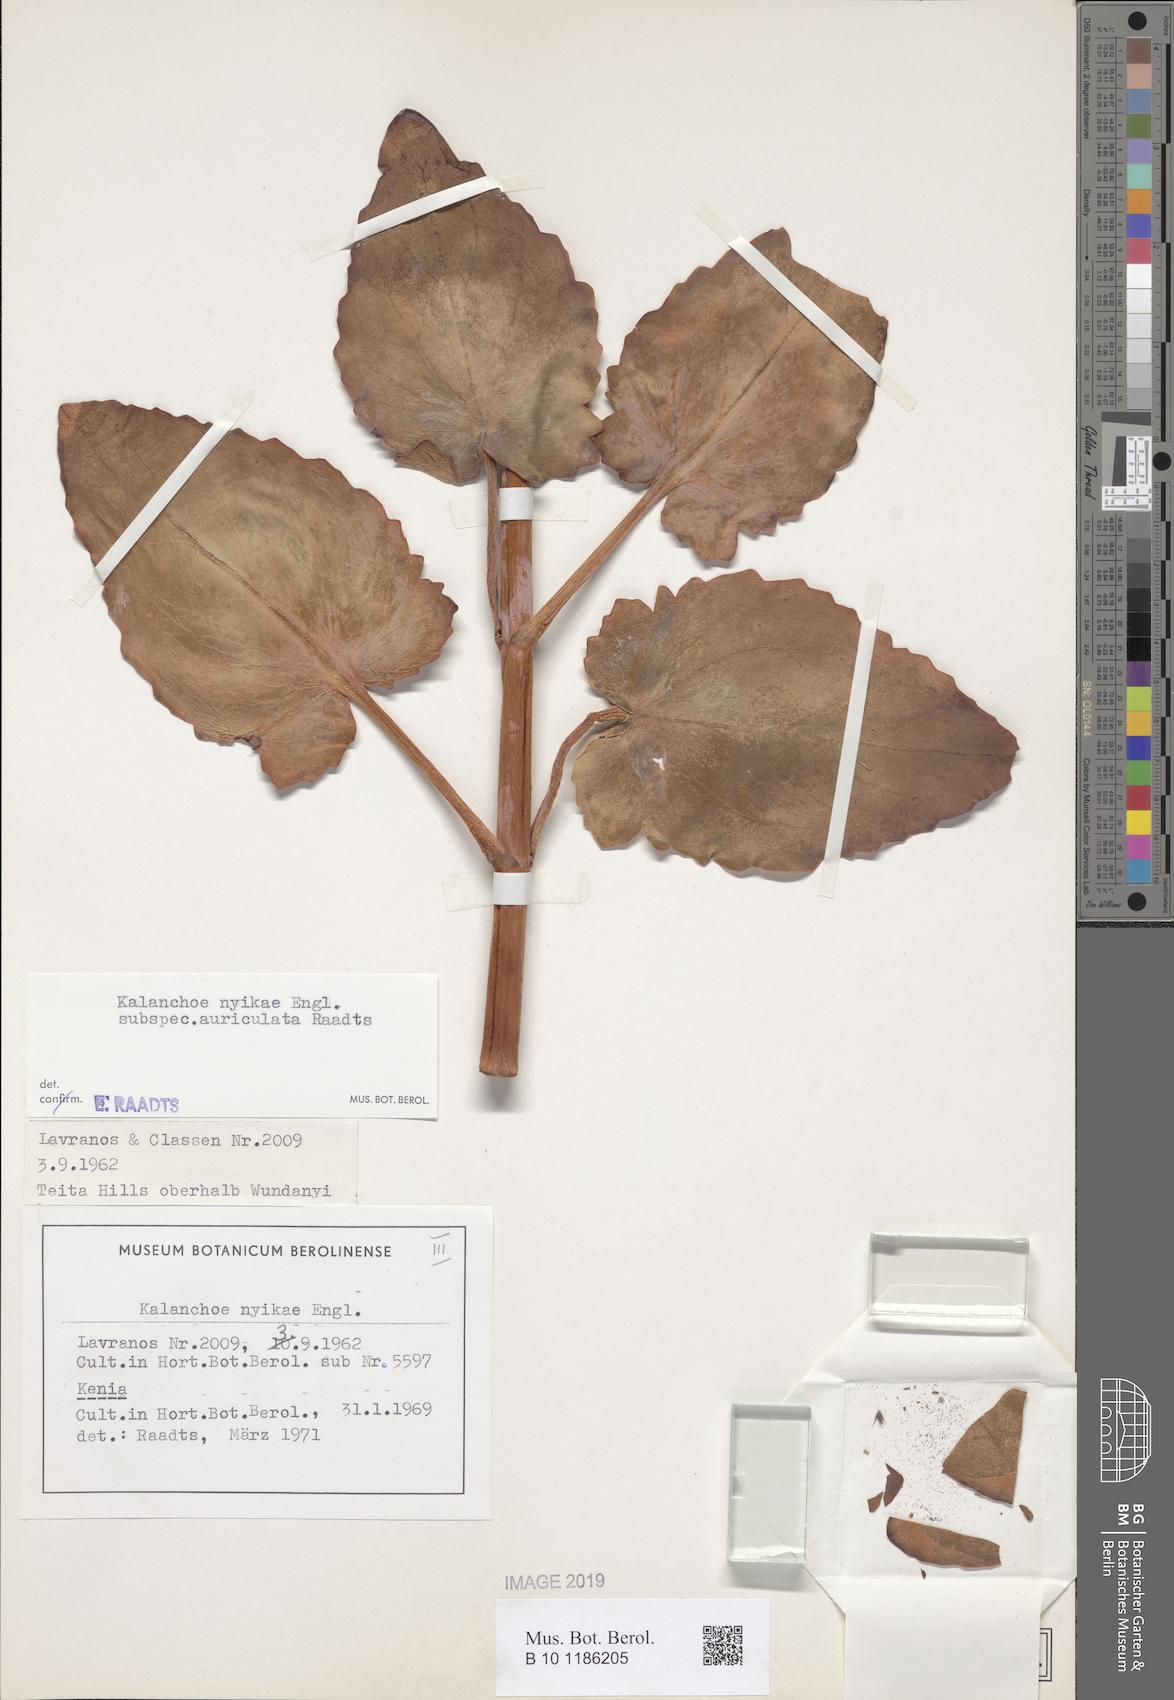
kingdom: Plantae
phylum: Tracheophyta
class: Magnoliopsida
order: Saxifragales
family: Crassulaceae
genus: Kalanchoe
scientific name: Kalanchoe auriculata
